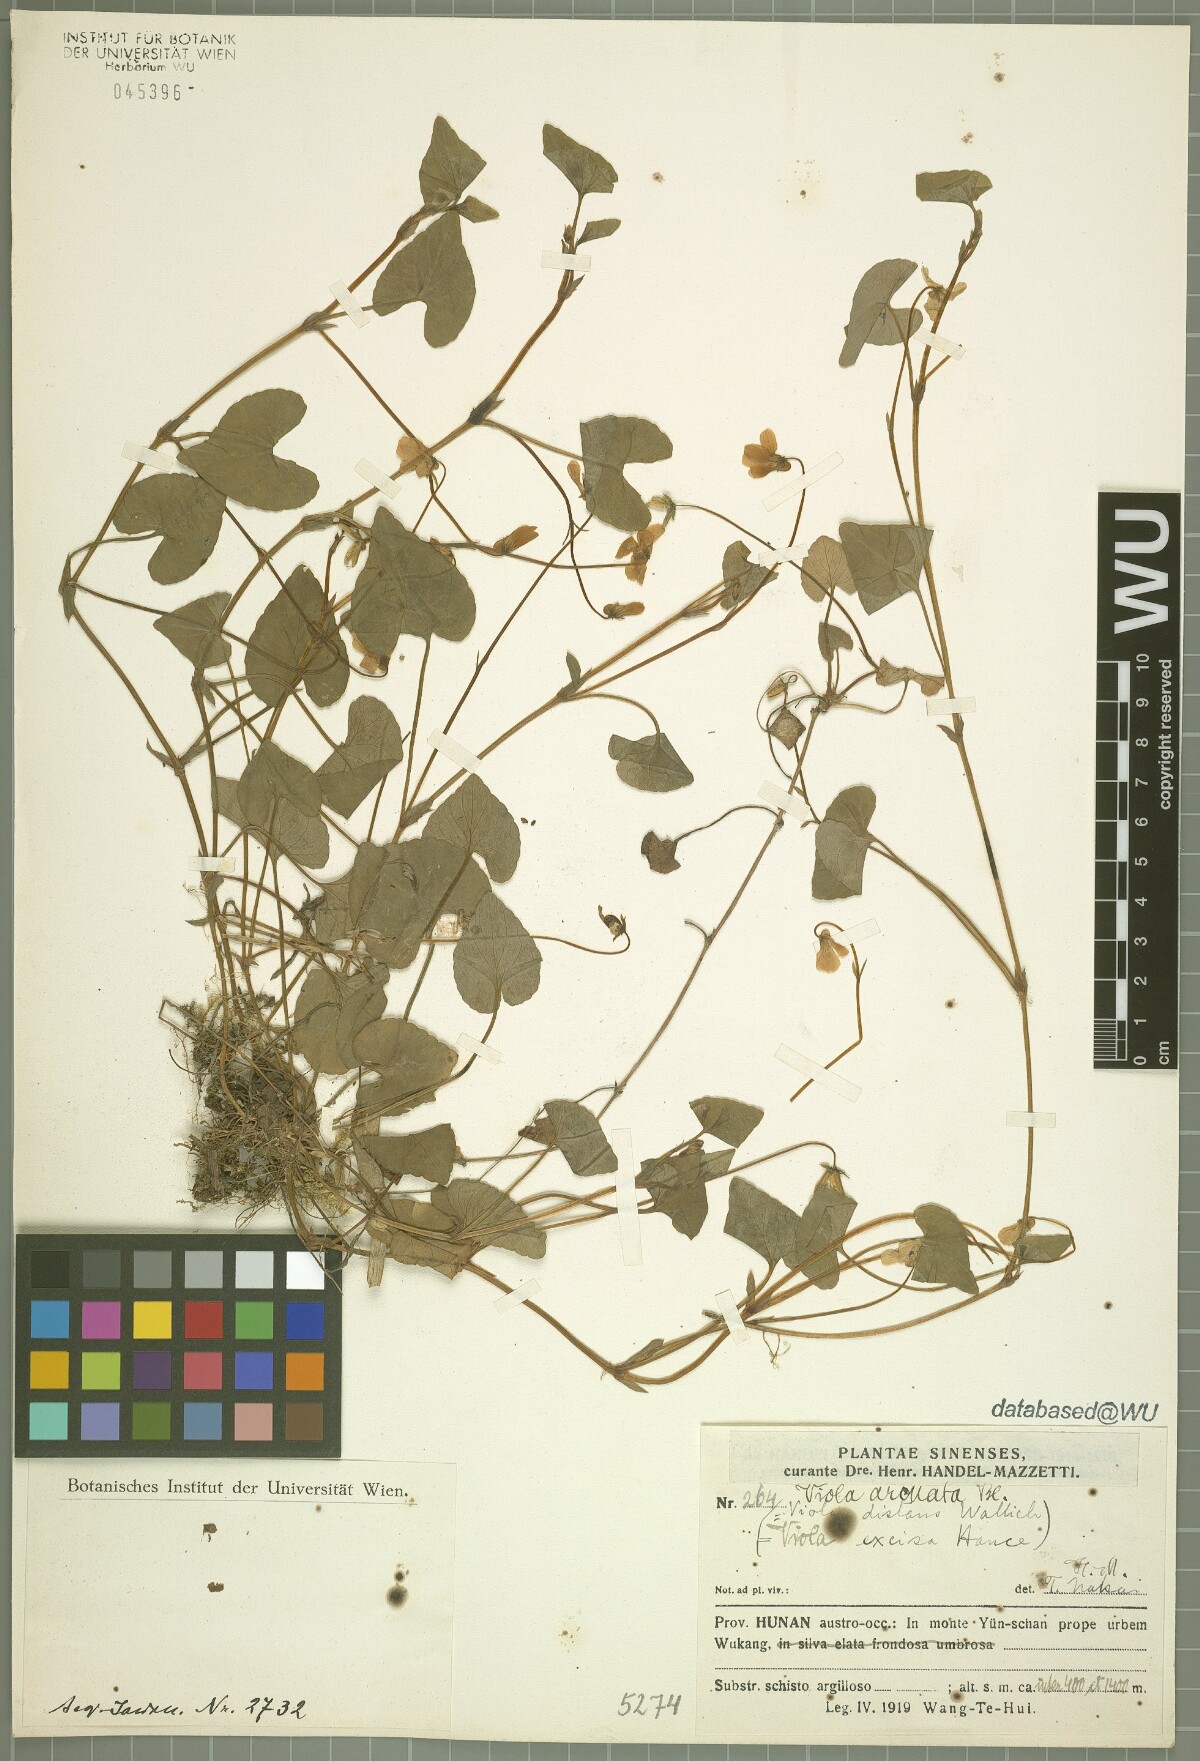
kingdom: Plantae
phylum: Tracheophyta
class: Magnoliopsida
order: Malpighiales
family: Violaceae
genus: Viola
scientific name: Viola hamiltoniana
